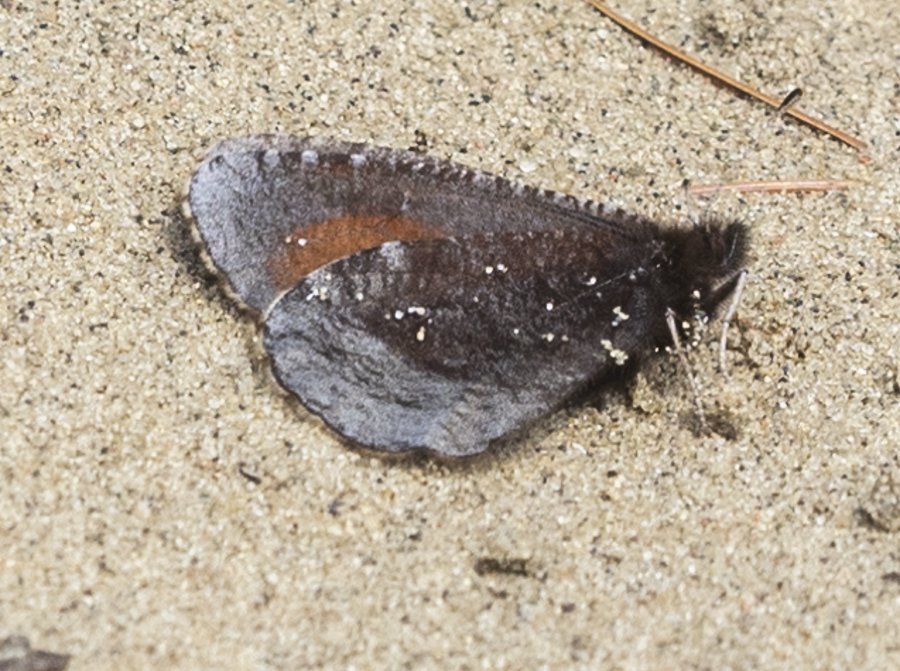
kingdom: Animalia
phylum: Arthropoda
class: Insecta
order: Lepidoptera
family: Nymphalidae
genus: Erebia
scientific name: Erebia discoidalis
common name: Red-disked Alpine
